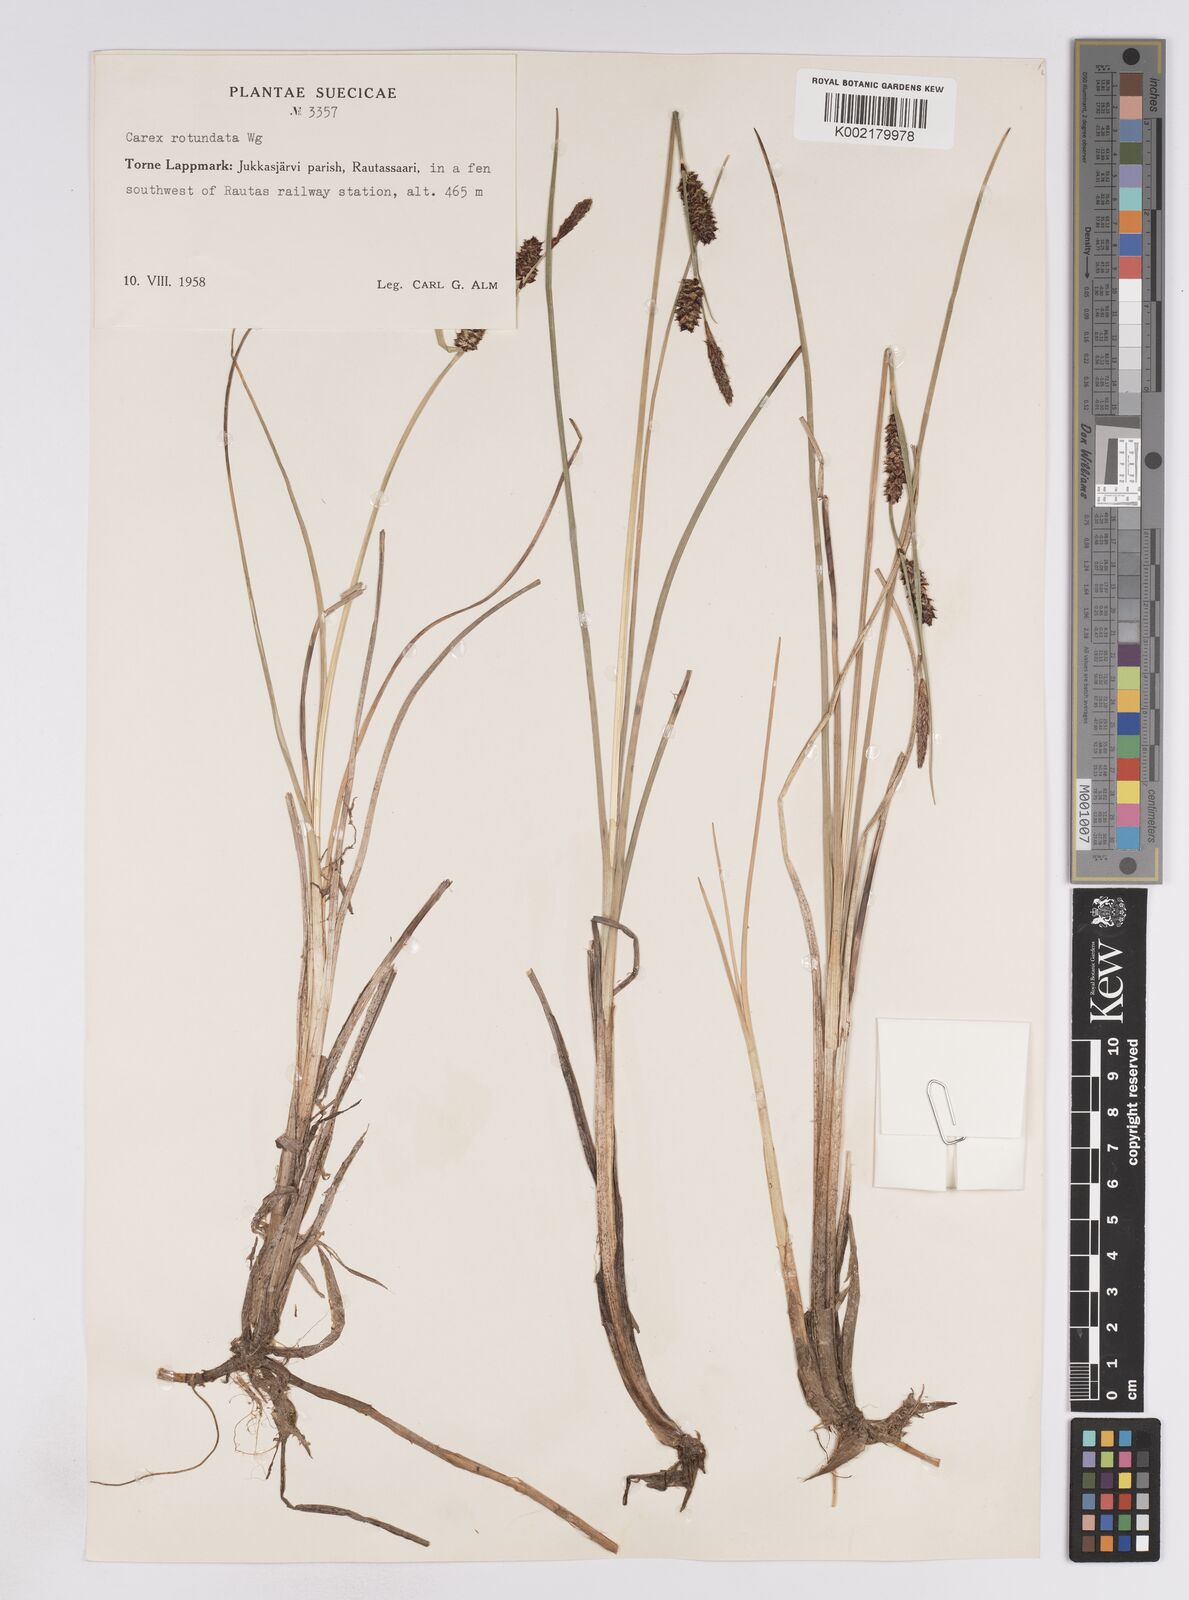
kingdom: Plantae
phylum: Tracheophyta
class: Liliopsida
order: Poales
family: Cyperaceae
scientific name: Cyperaceae
